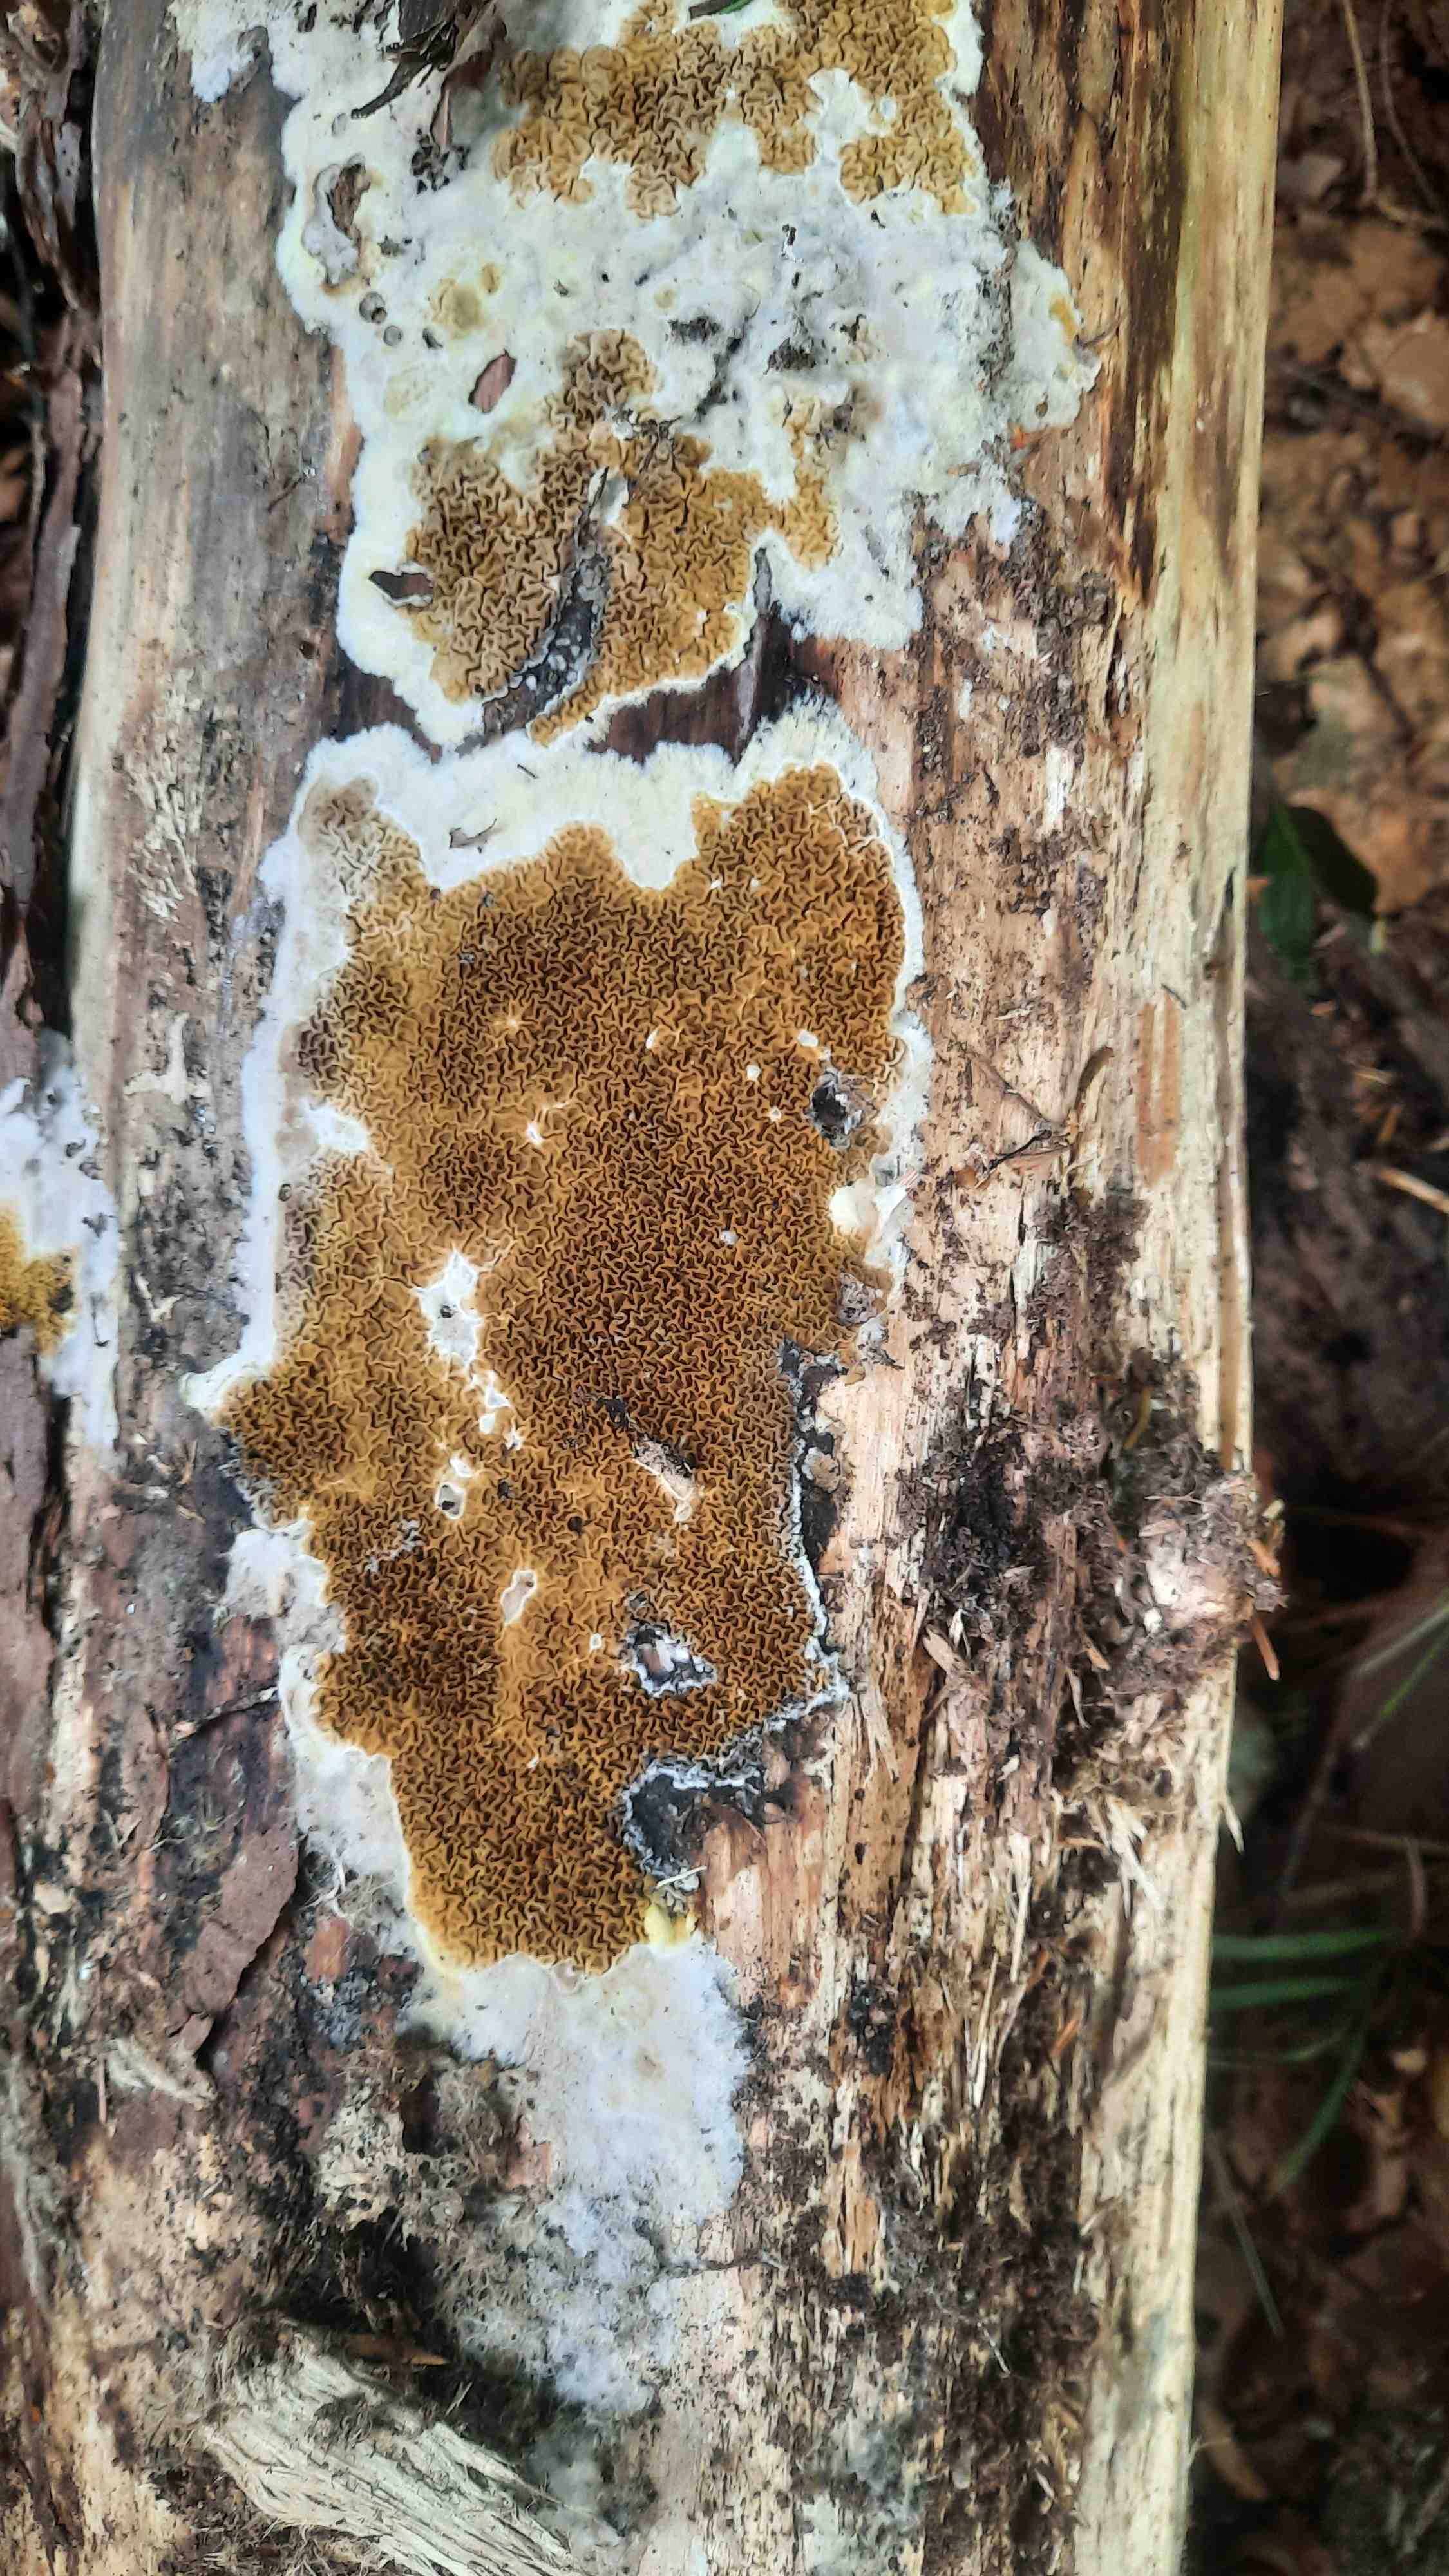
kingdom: Fungi
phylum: Basidiomycota
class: Agaricomycetes
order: Boletales
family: Serpulaceae
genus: Serpula
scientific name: Serpula himantioides
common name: tyndkødet hussvamp
